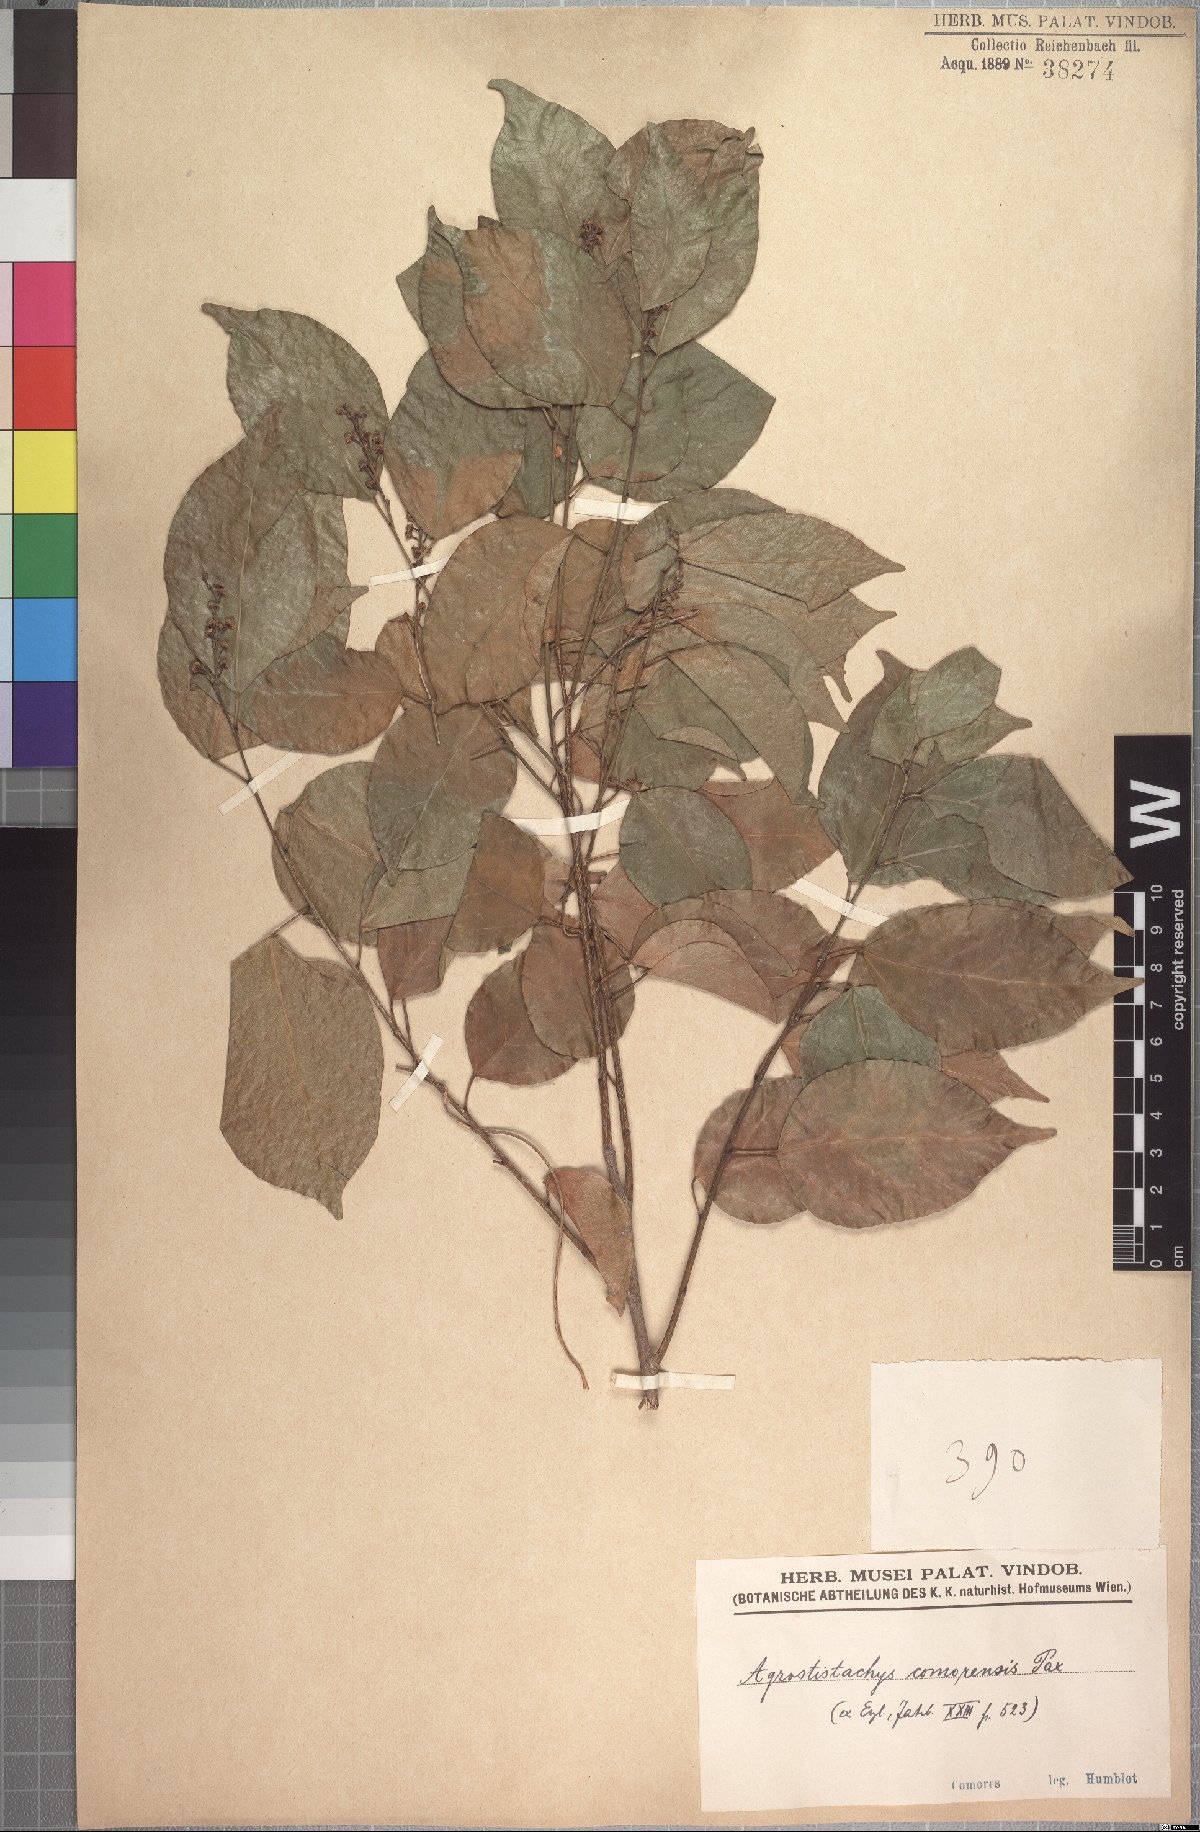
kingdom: Plantae
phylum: Tracheophyta
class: Magnoliopsida
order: Malpighiales
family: Euphorbiaceae
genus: Tannodia
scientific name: Tannodia cordifolia
